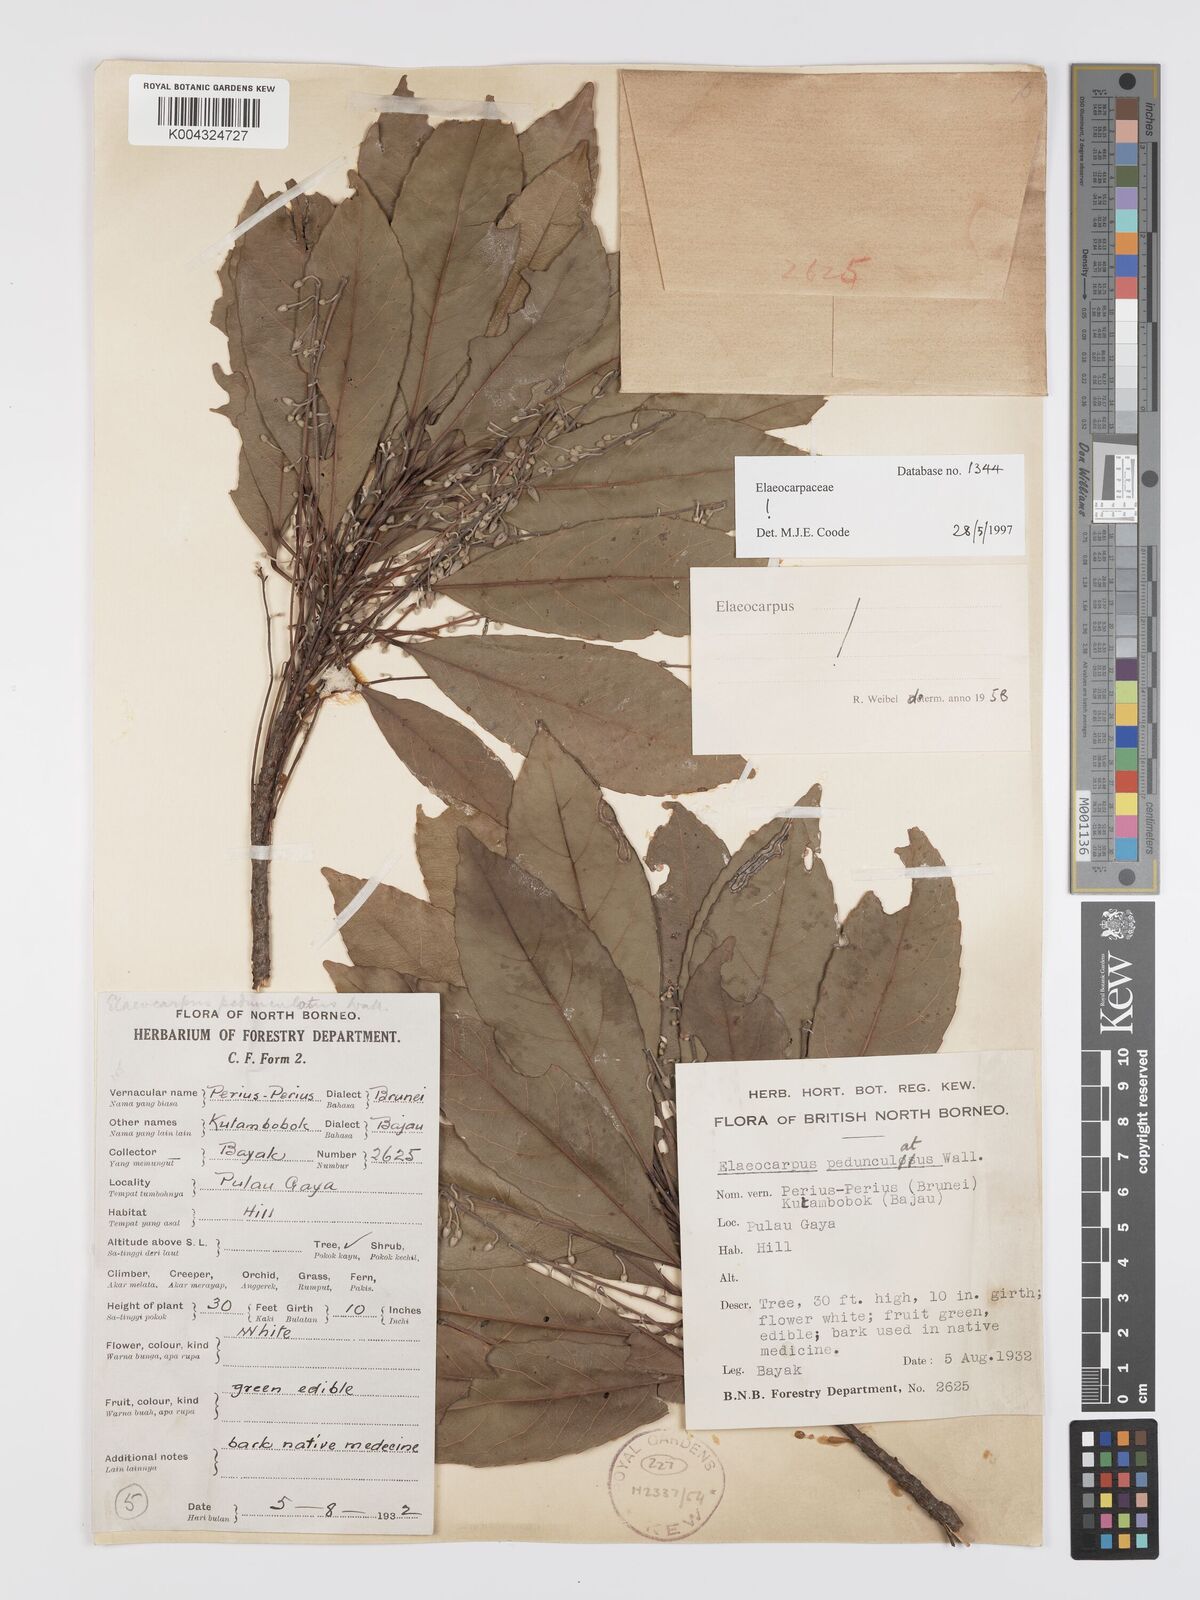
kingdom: Plantae
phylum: Tracheophyta
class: Magnoliopsida
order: Oxalidales
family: Elaeocarpaceae
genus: Elaeocarpus
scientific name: Elaeocarpus pedunculatus
